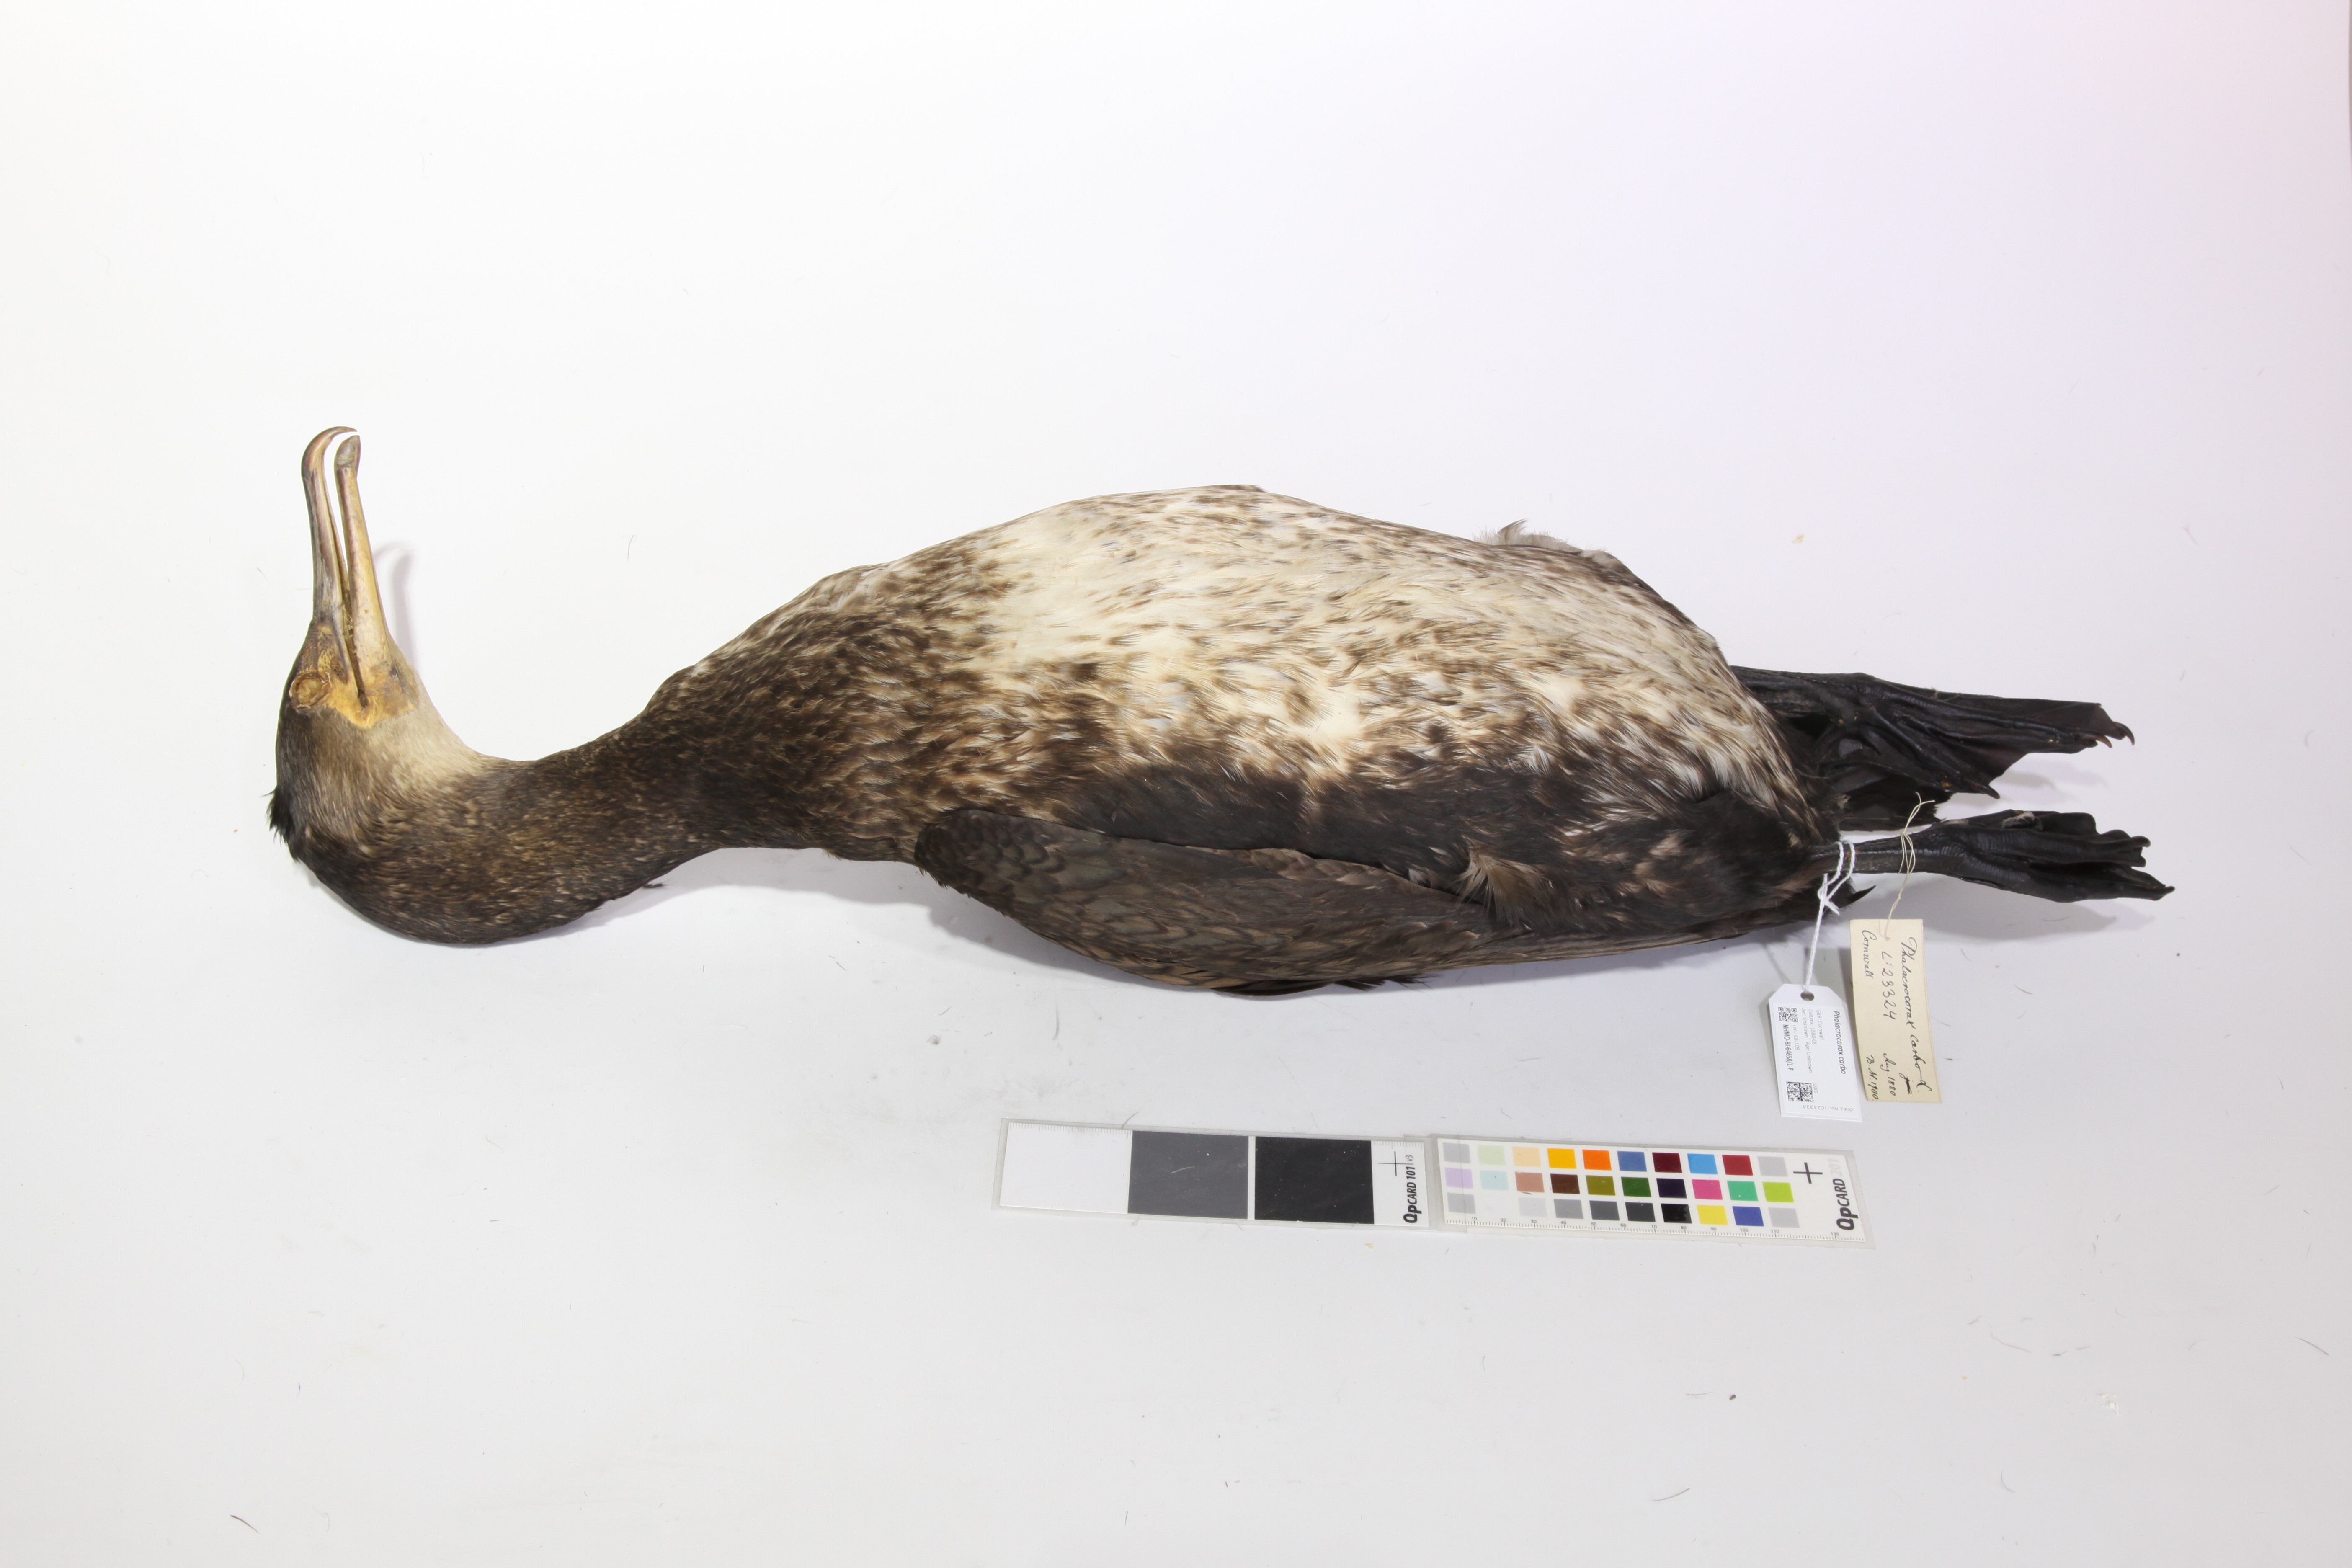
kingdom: Animalia
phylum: Chordata
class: Aves
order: Suliformes
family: Phalacrocoracidae
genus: Phalacrocorax
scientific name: Phalacrocorax carbo
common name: Great cormorant
